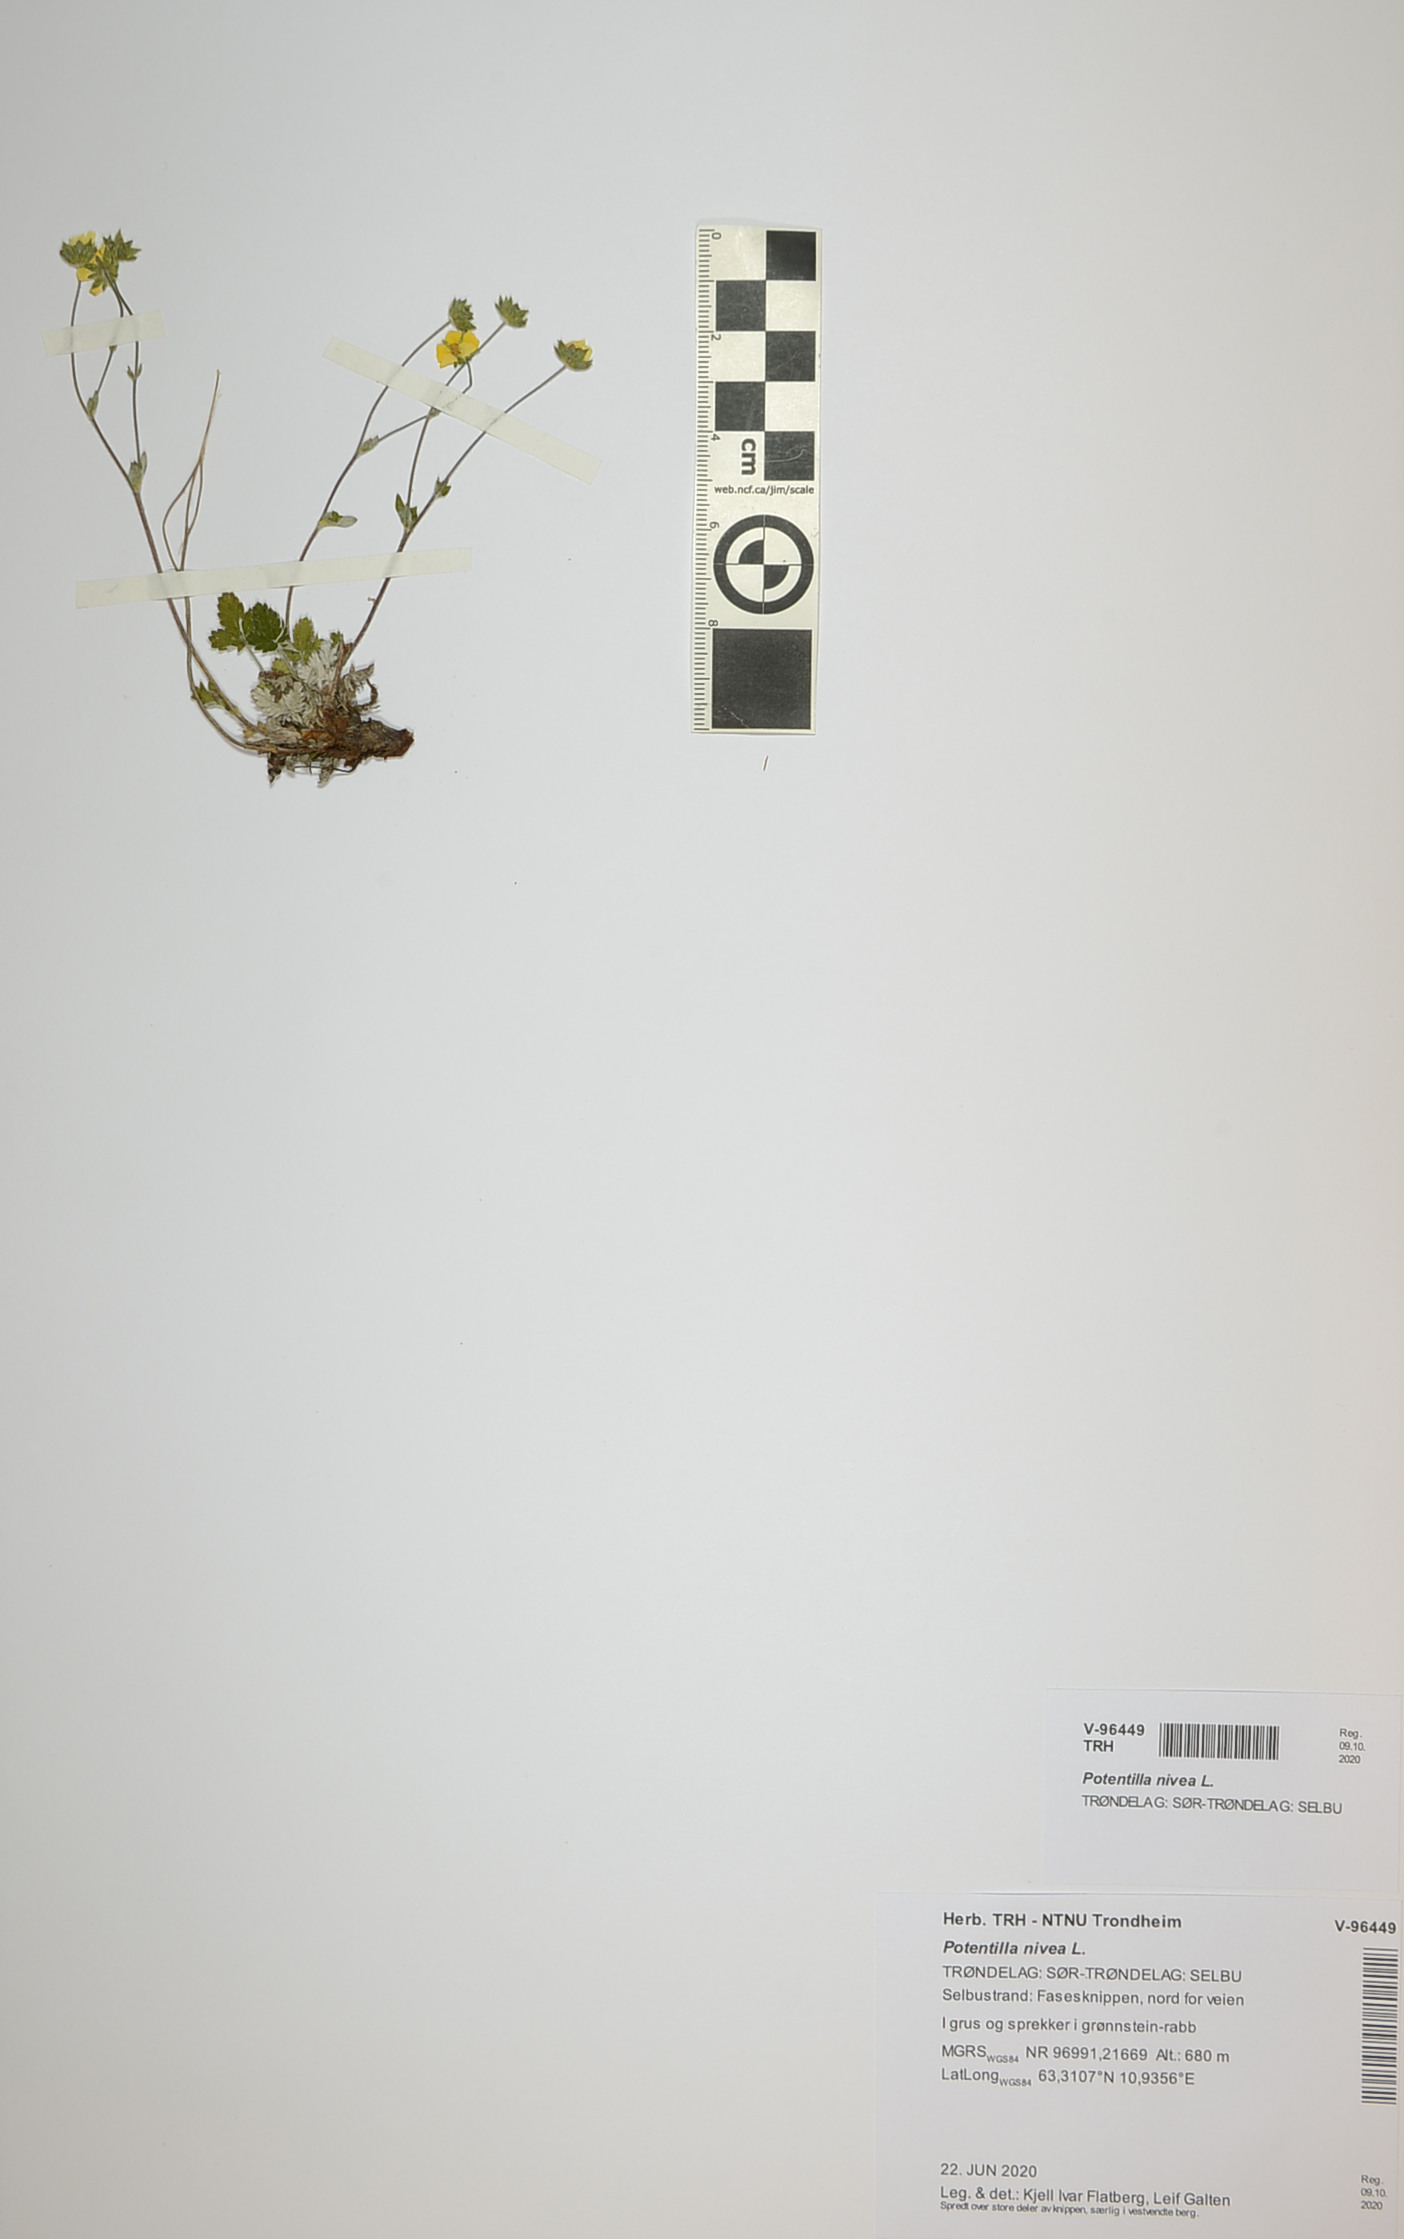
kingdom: Plantae
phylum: Tracheophyta
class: Magnoliopsida
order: Rosales
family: Rosaceae
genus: Potentilla
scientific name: Potentilla nivea
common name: Snow cinquefoil
